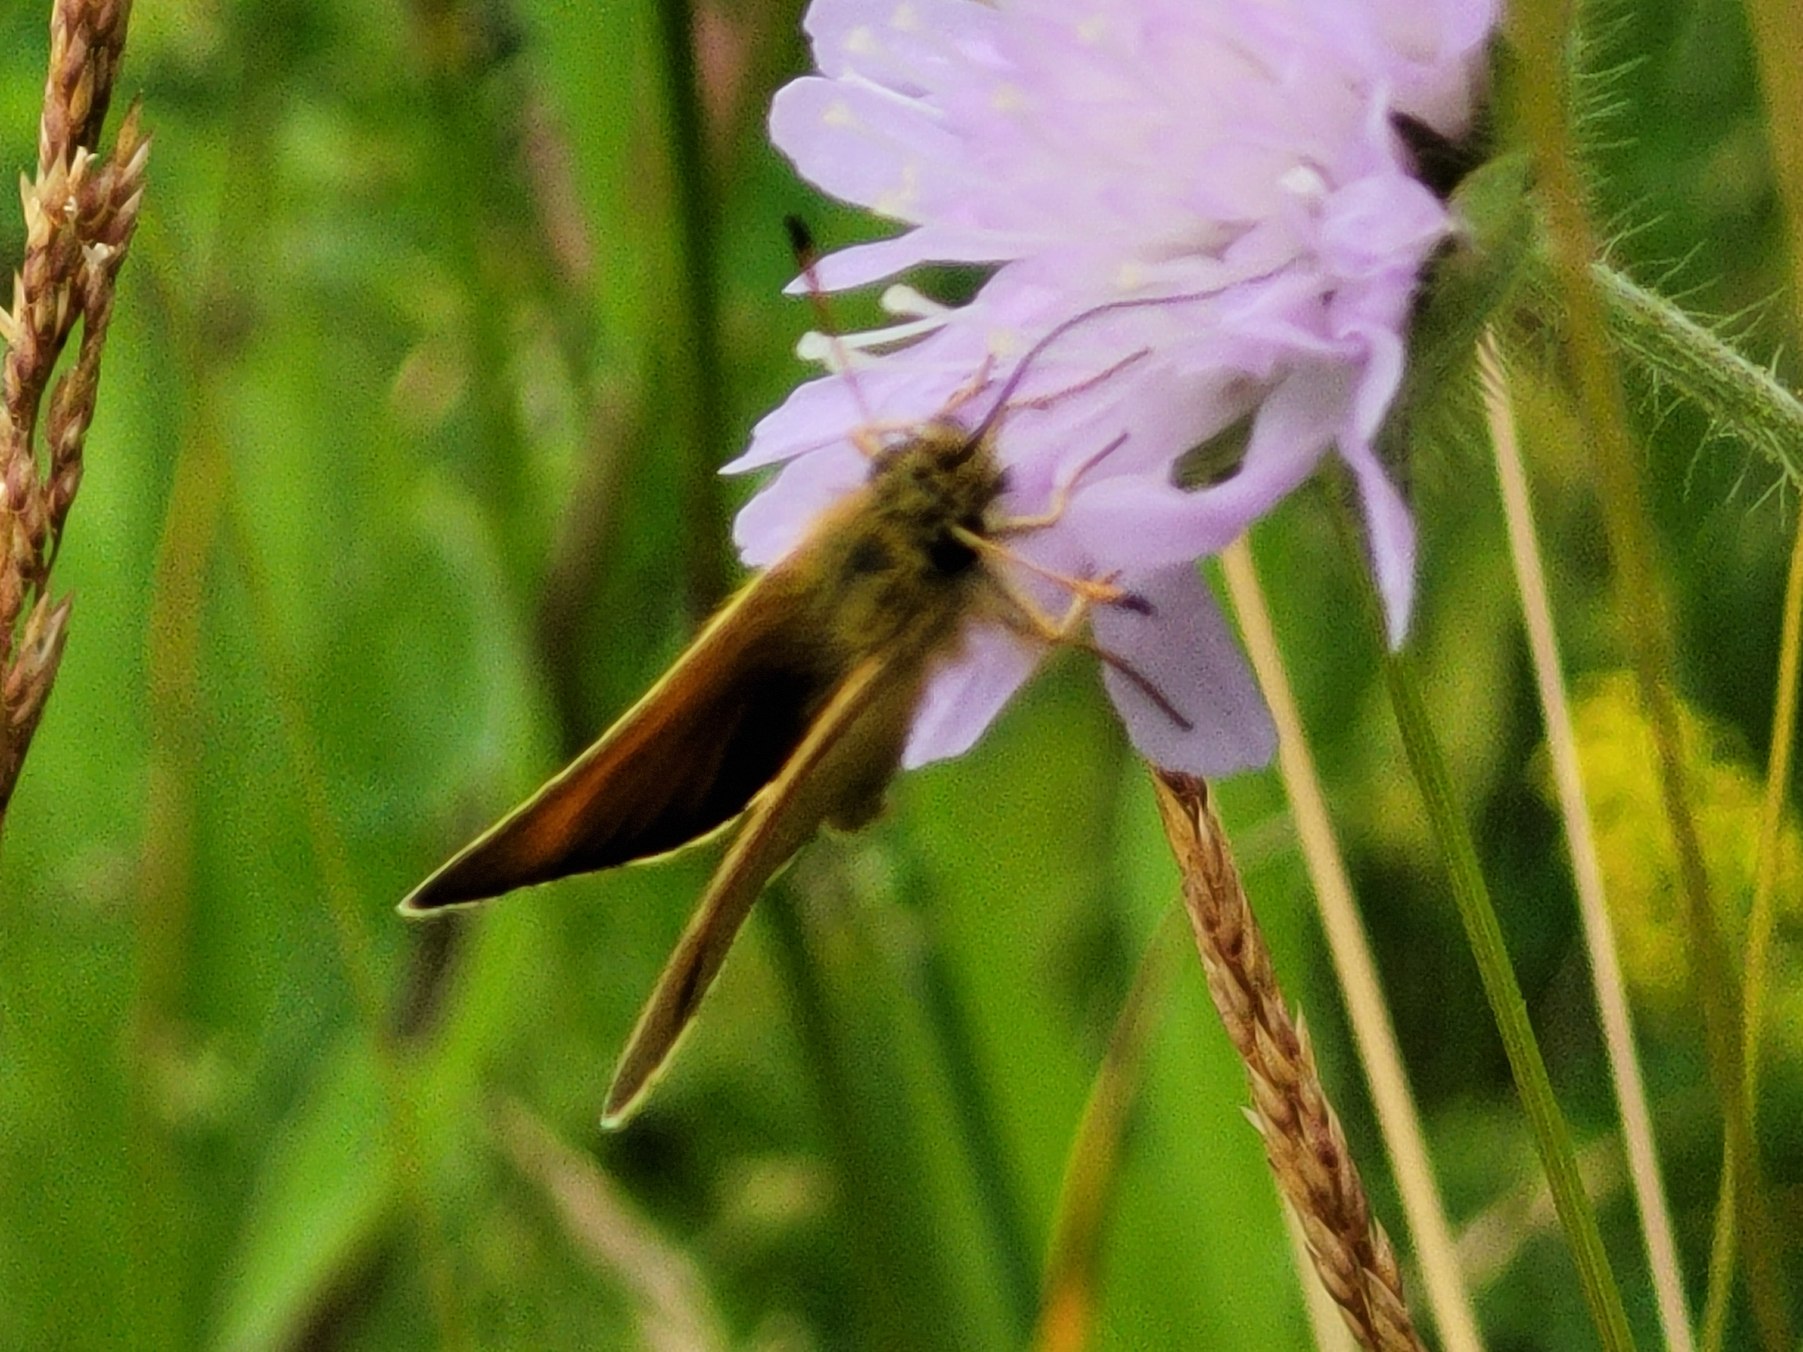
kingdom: Animalia
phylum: Arthropoda
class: Insecta
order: Lepidoptera
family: Hesperiidae
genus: Ochlodes
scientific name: Ochlodes venata
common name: Stor bredpande
